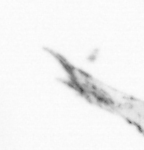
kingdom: Animalia
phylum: Arthropoda
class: Copepoda
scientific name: Copepoda
